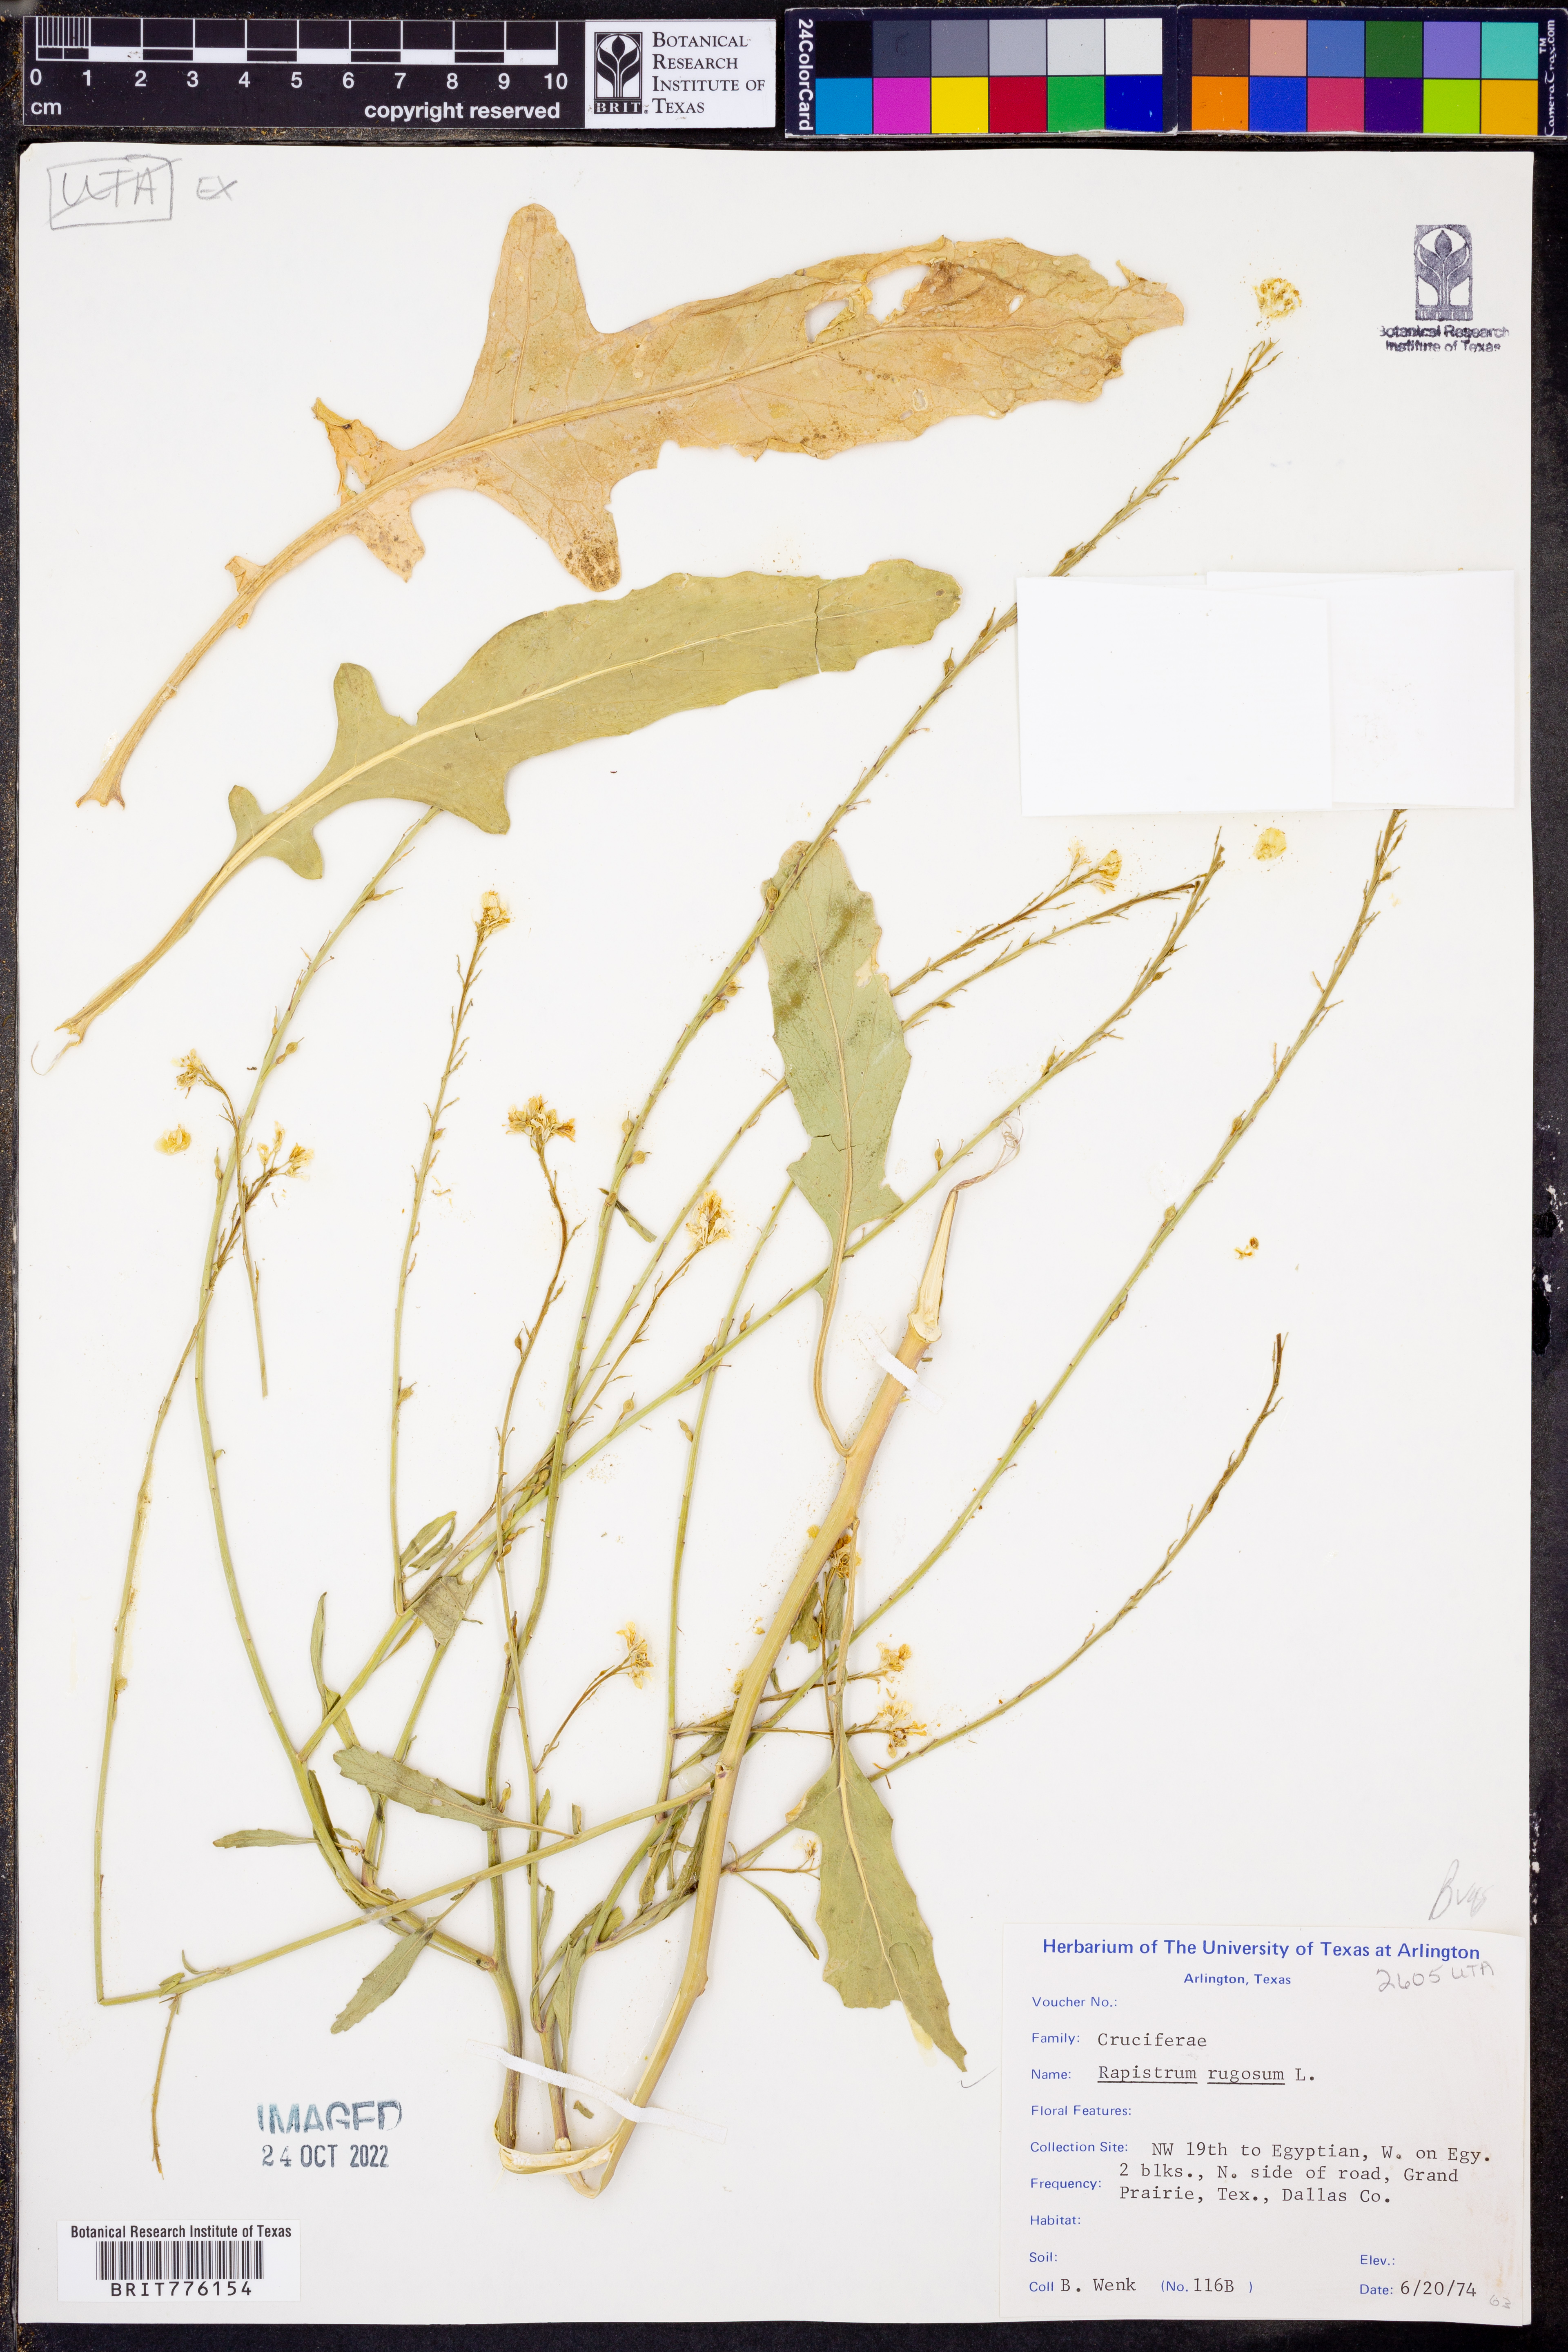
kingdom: Plantae
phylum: Tracheophyta
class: Magnoliopsida
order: Brassicales
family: Brassicaceae
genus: Rapistrum
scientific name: Rapistrum rugosum
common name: Annual bastardcabbage
